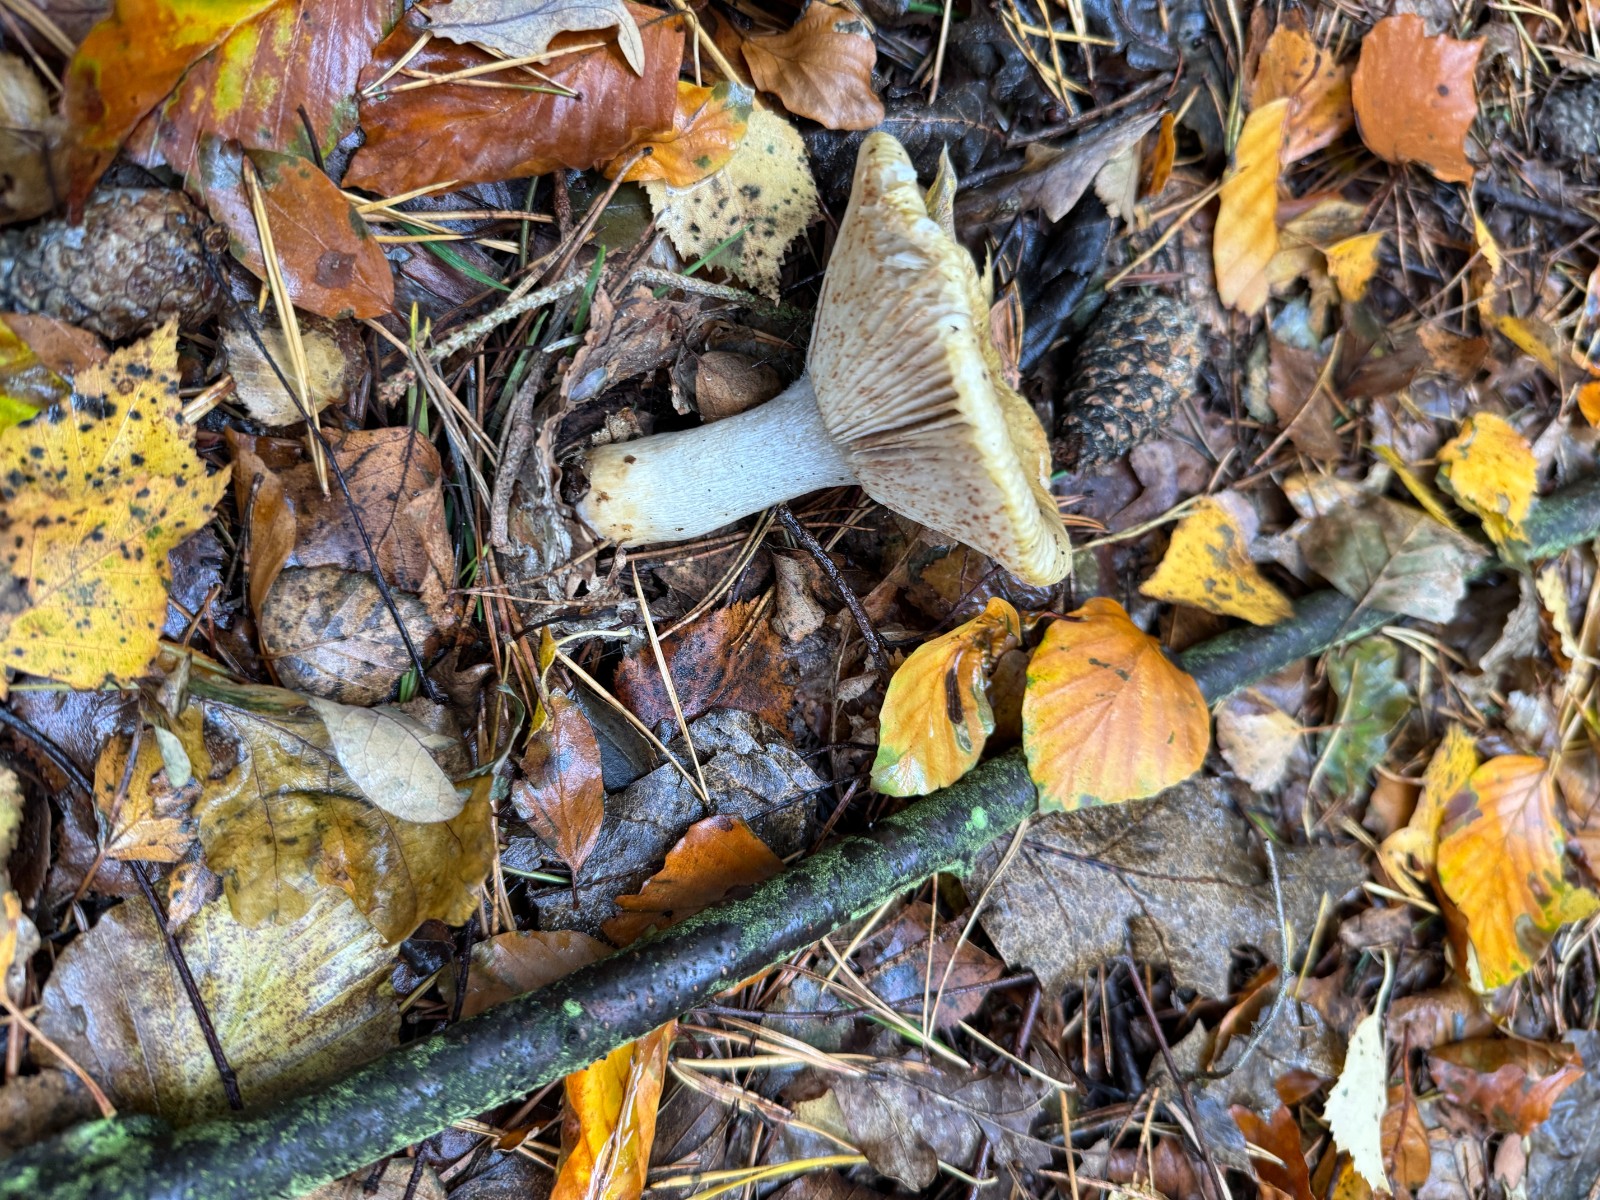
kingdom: Fungi
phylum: Basidiomycota
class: Agaricomycetes
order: Russulales
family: Russulaceae
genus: Russula
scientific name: Russula
